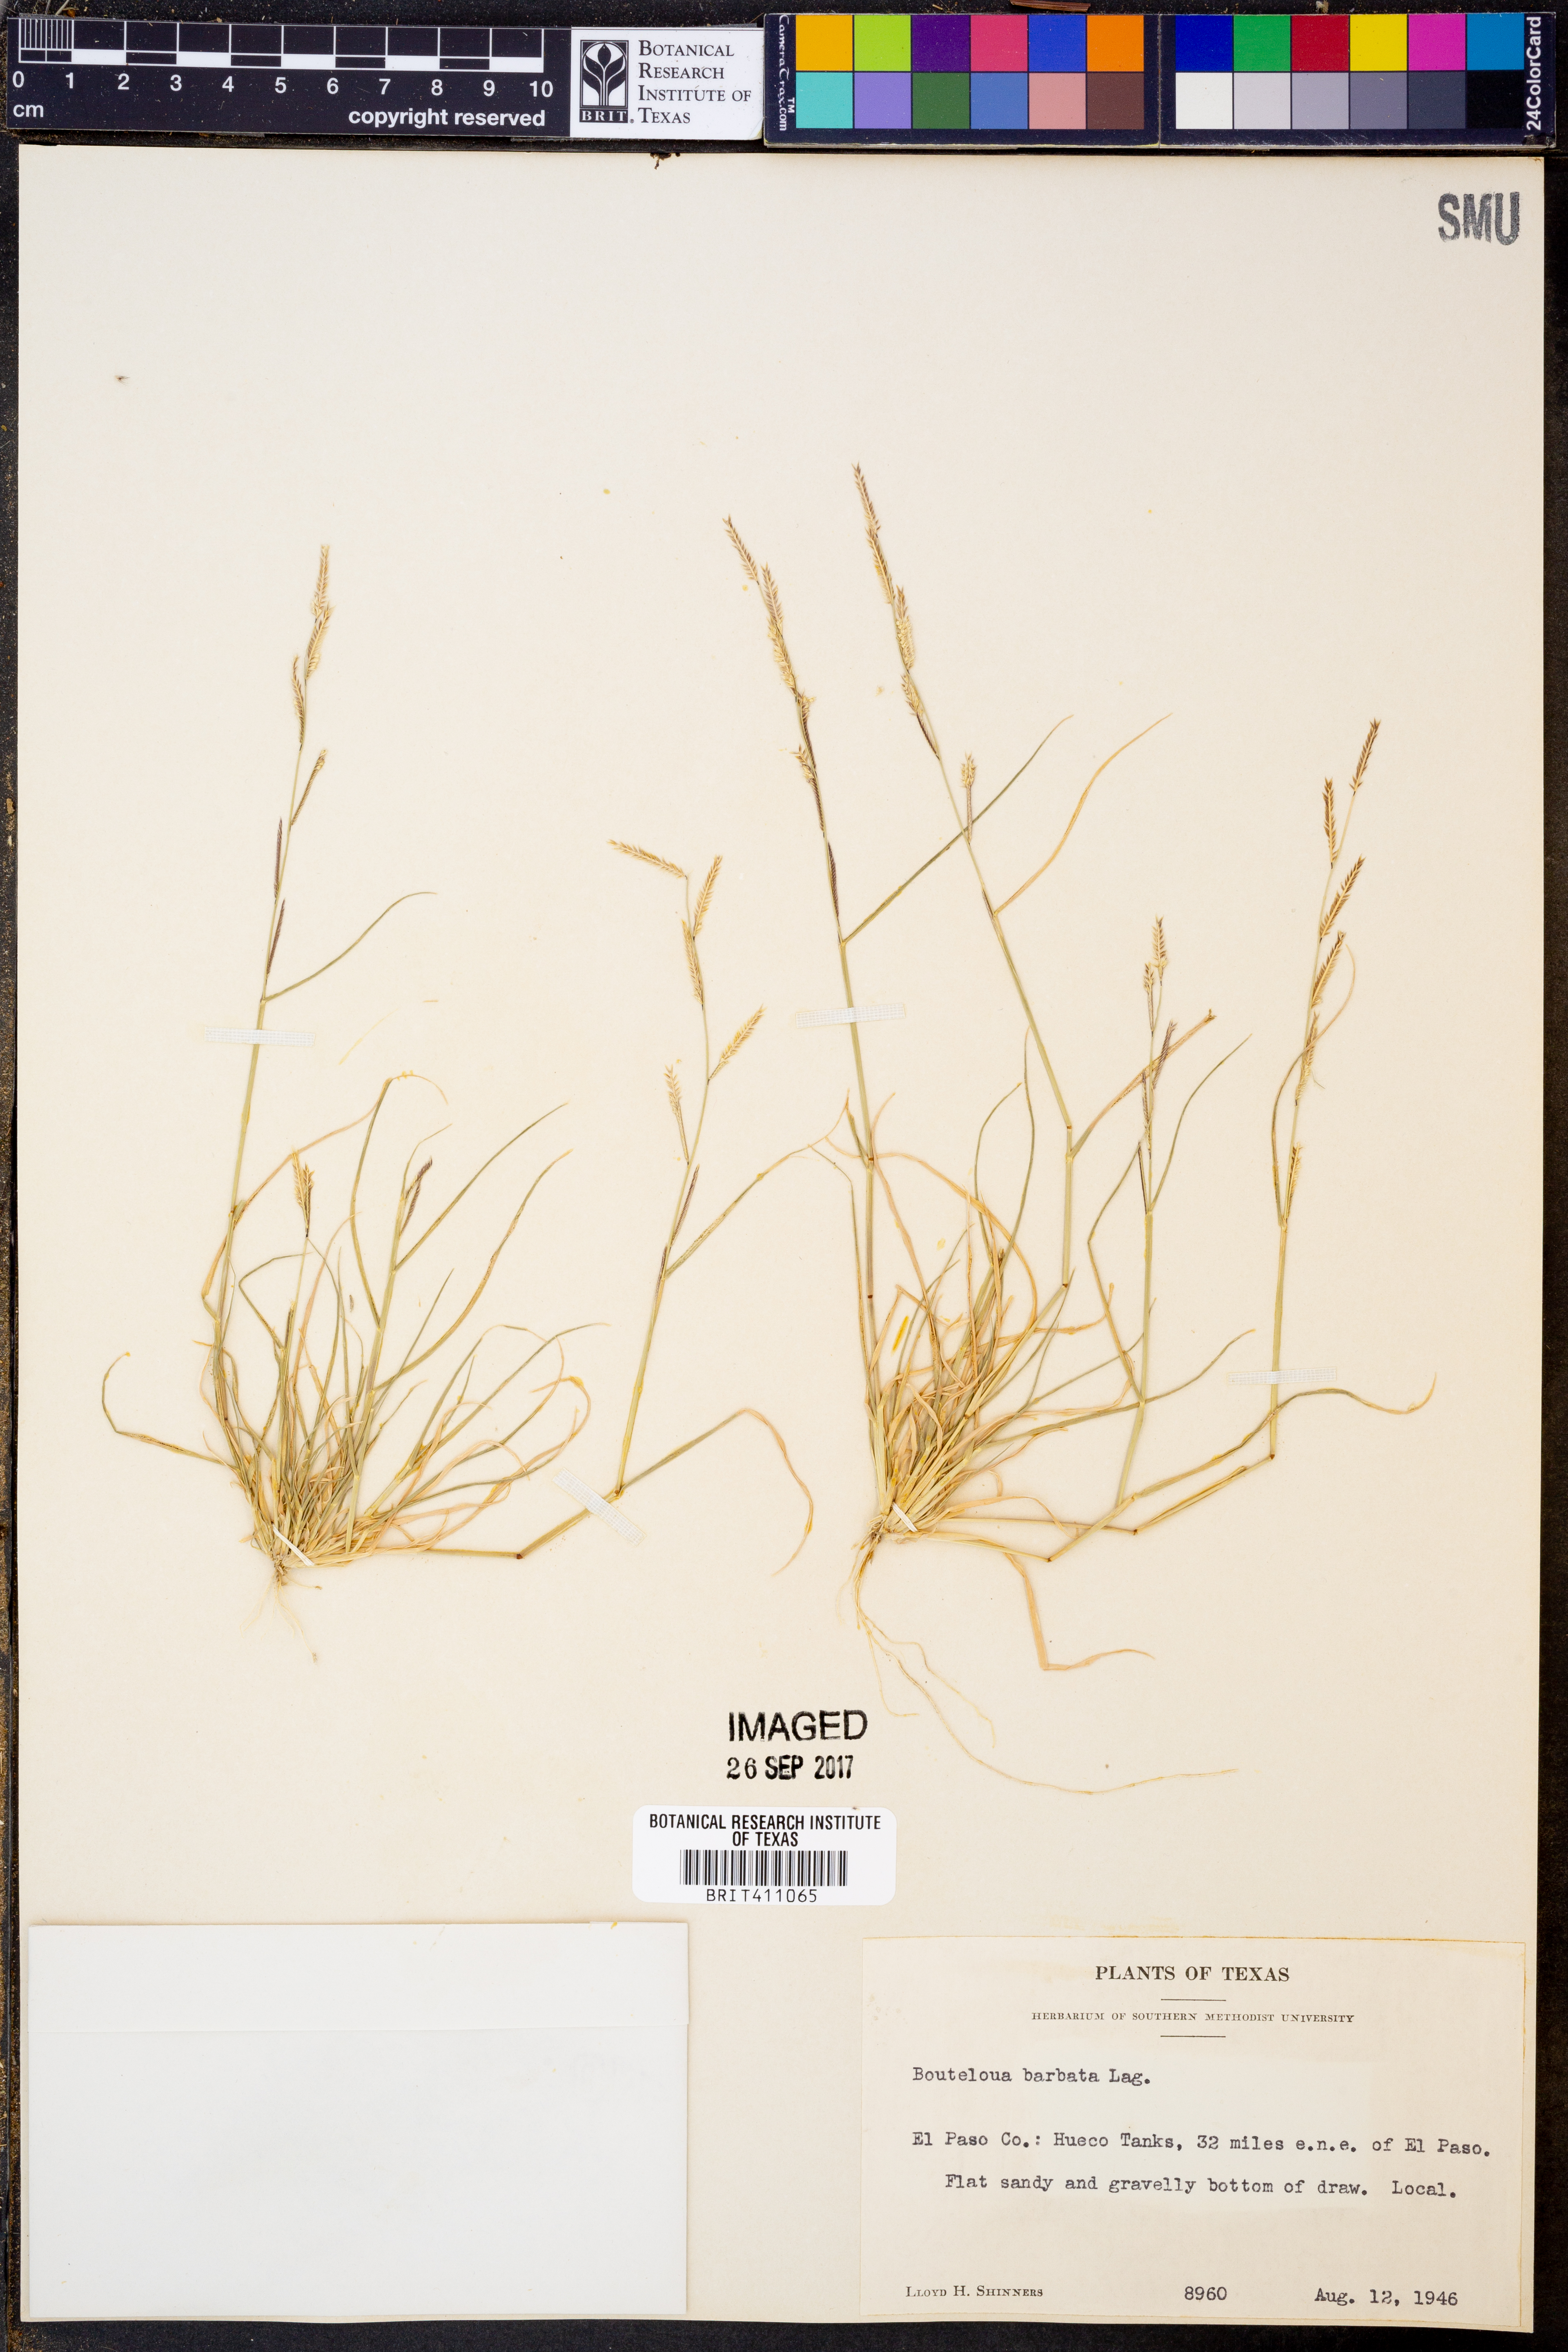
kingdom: Plantae
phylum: Tracheophyta
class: Liliopsida
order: Poales
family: Poaceae
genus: Bouteloua
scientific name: Bouteloua barbata
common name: Six-weeks grama
